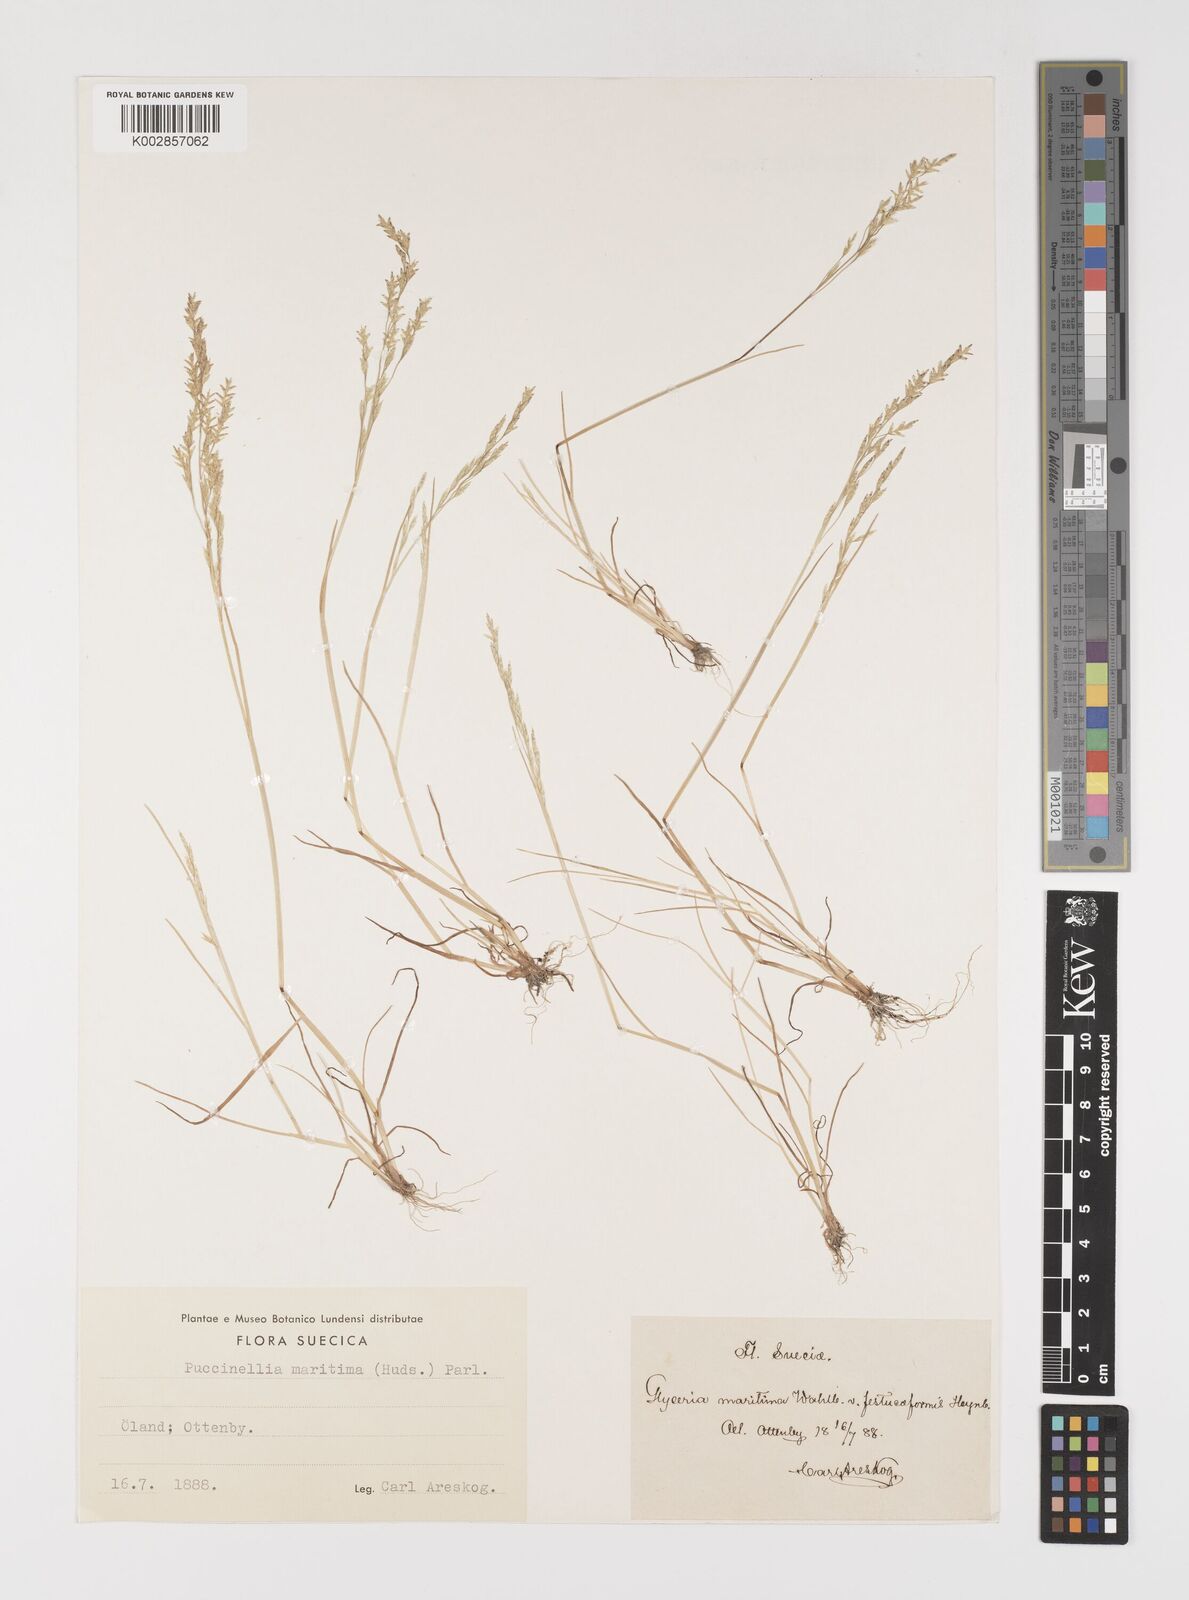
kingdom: Plantae
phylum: Tracheophyta
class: Liliopsida
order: Poales
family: Poaceae
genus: Puccinellia
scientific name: Puccinellia maritima
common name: Common saltmarsh grass
